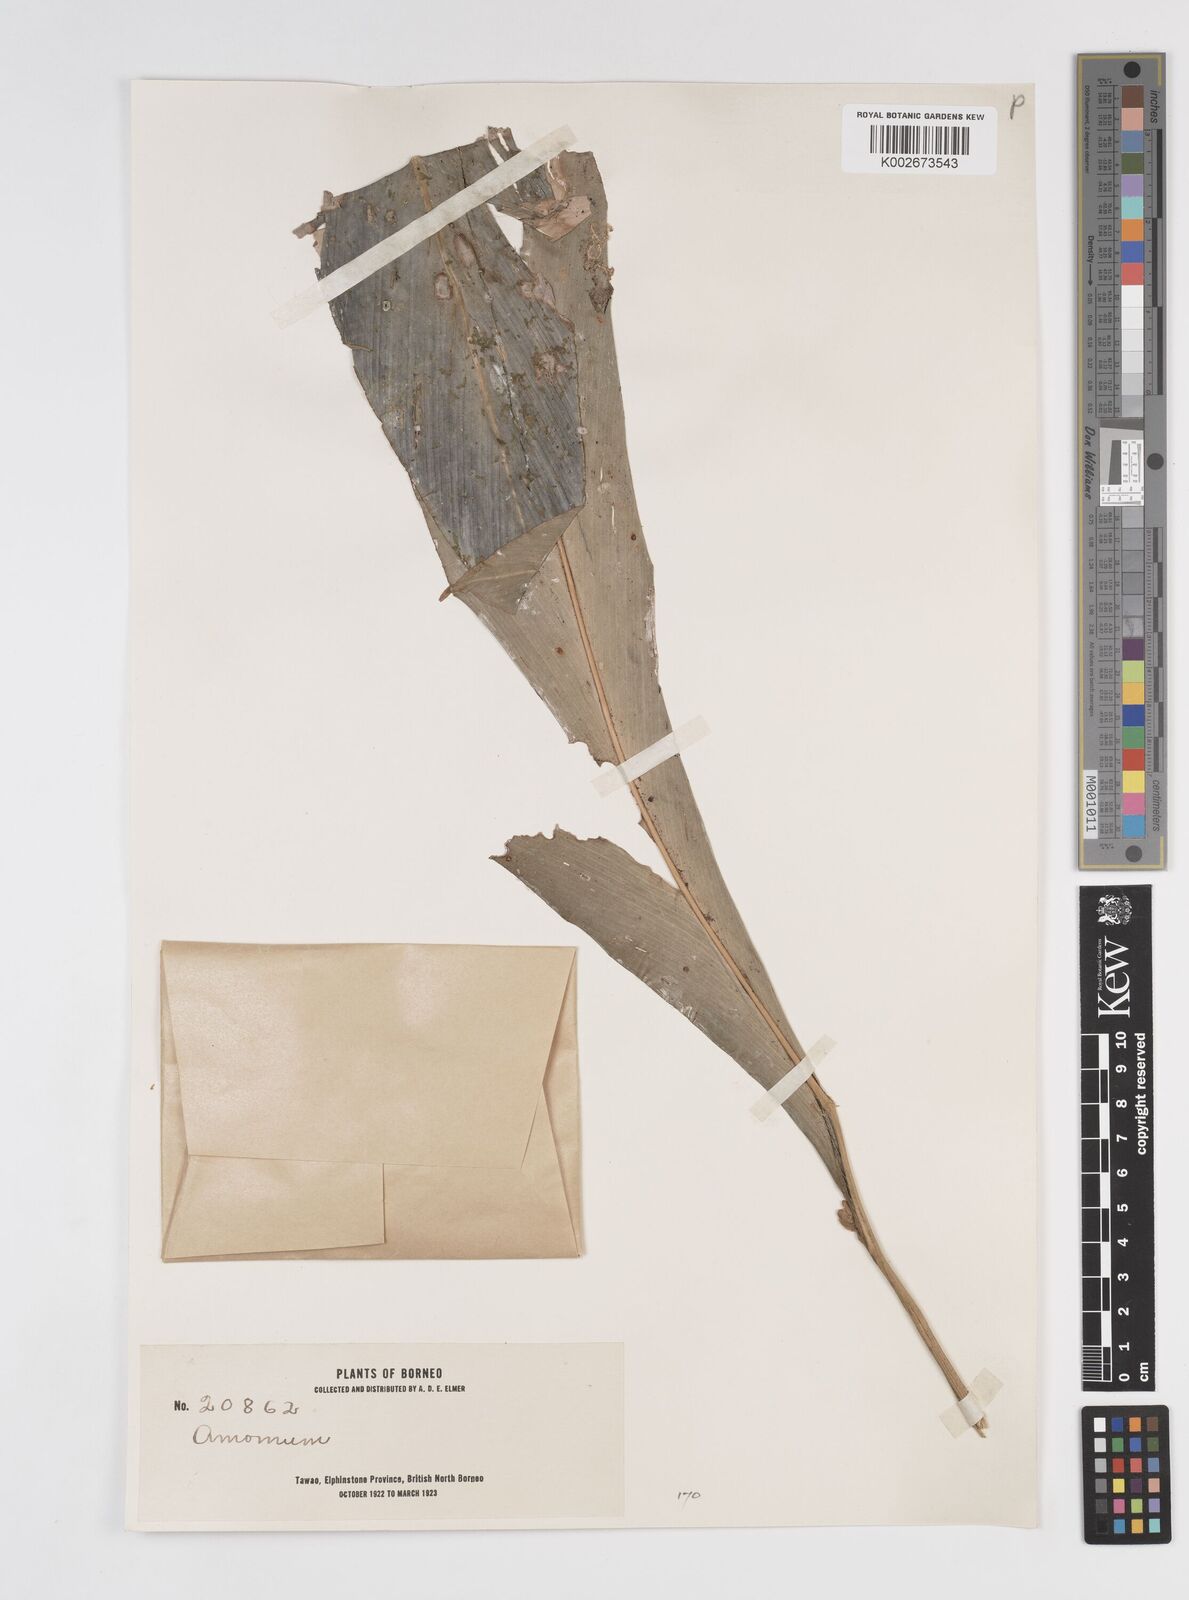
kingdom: Plantae
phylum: Tracheophyta
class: Liliopsida
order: Zingiberales
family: Zingiberaceae
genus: Amomum
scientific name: Amomum
